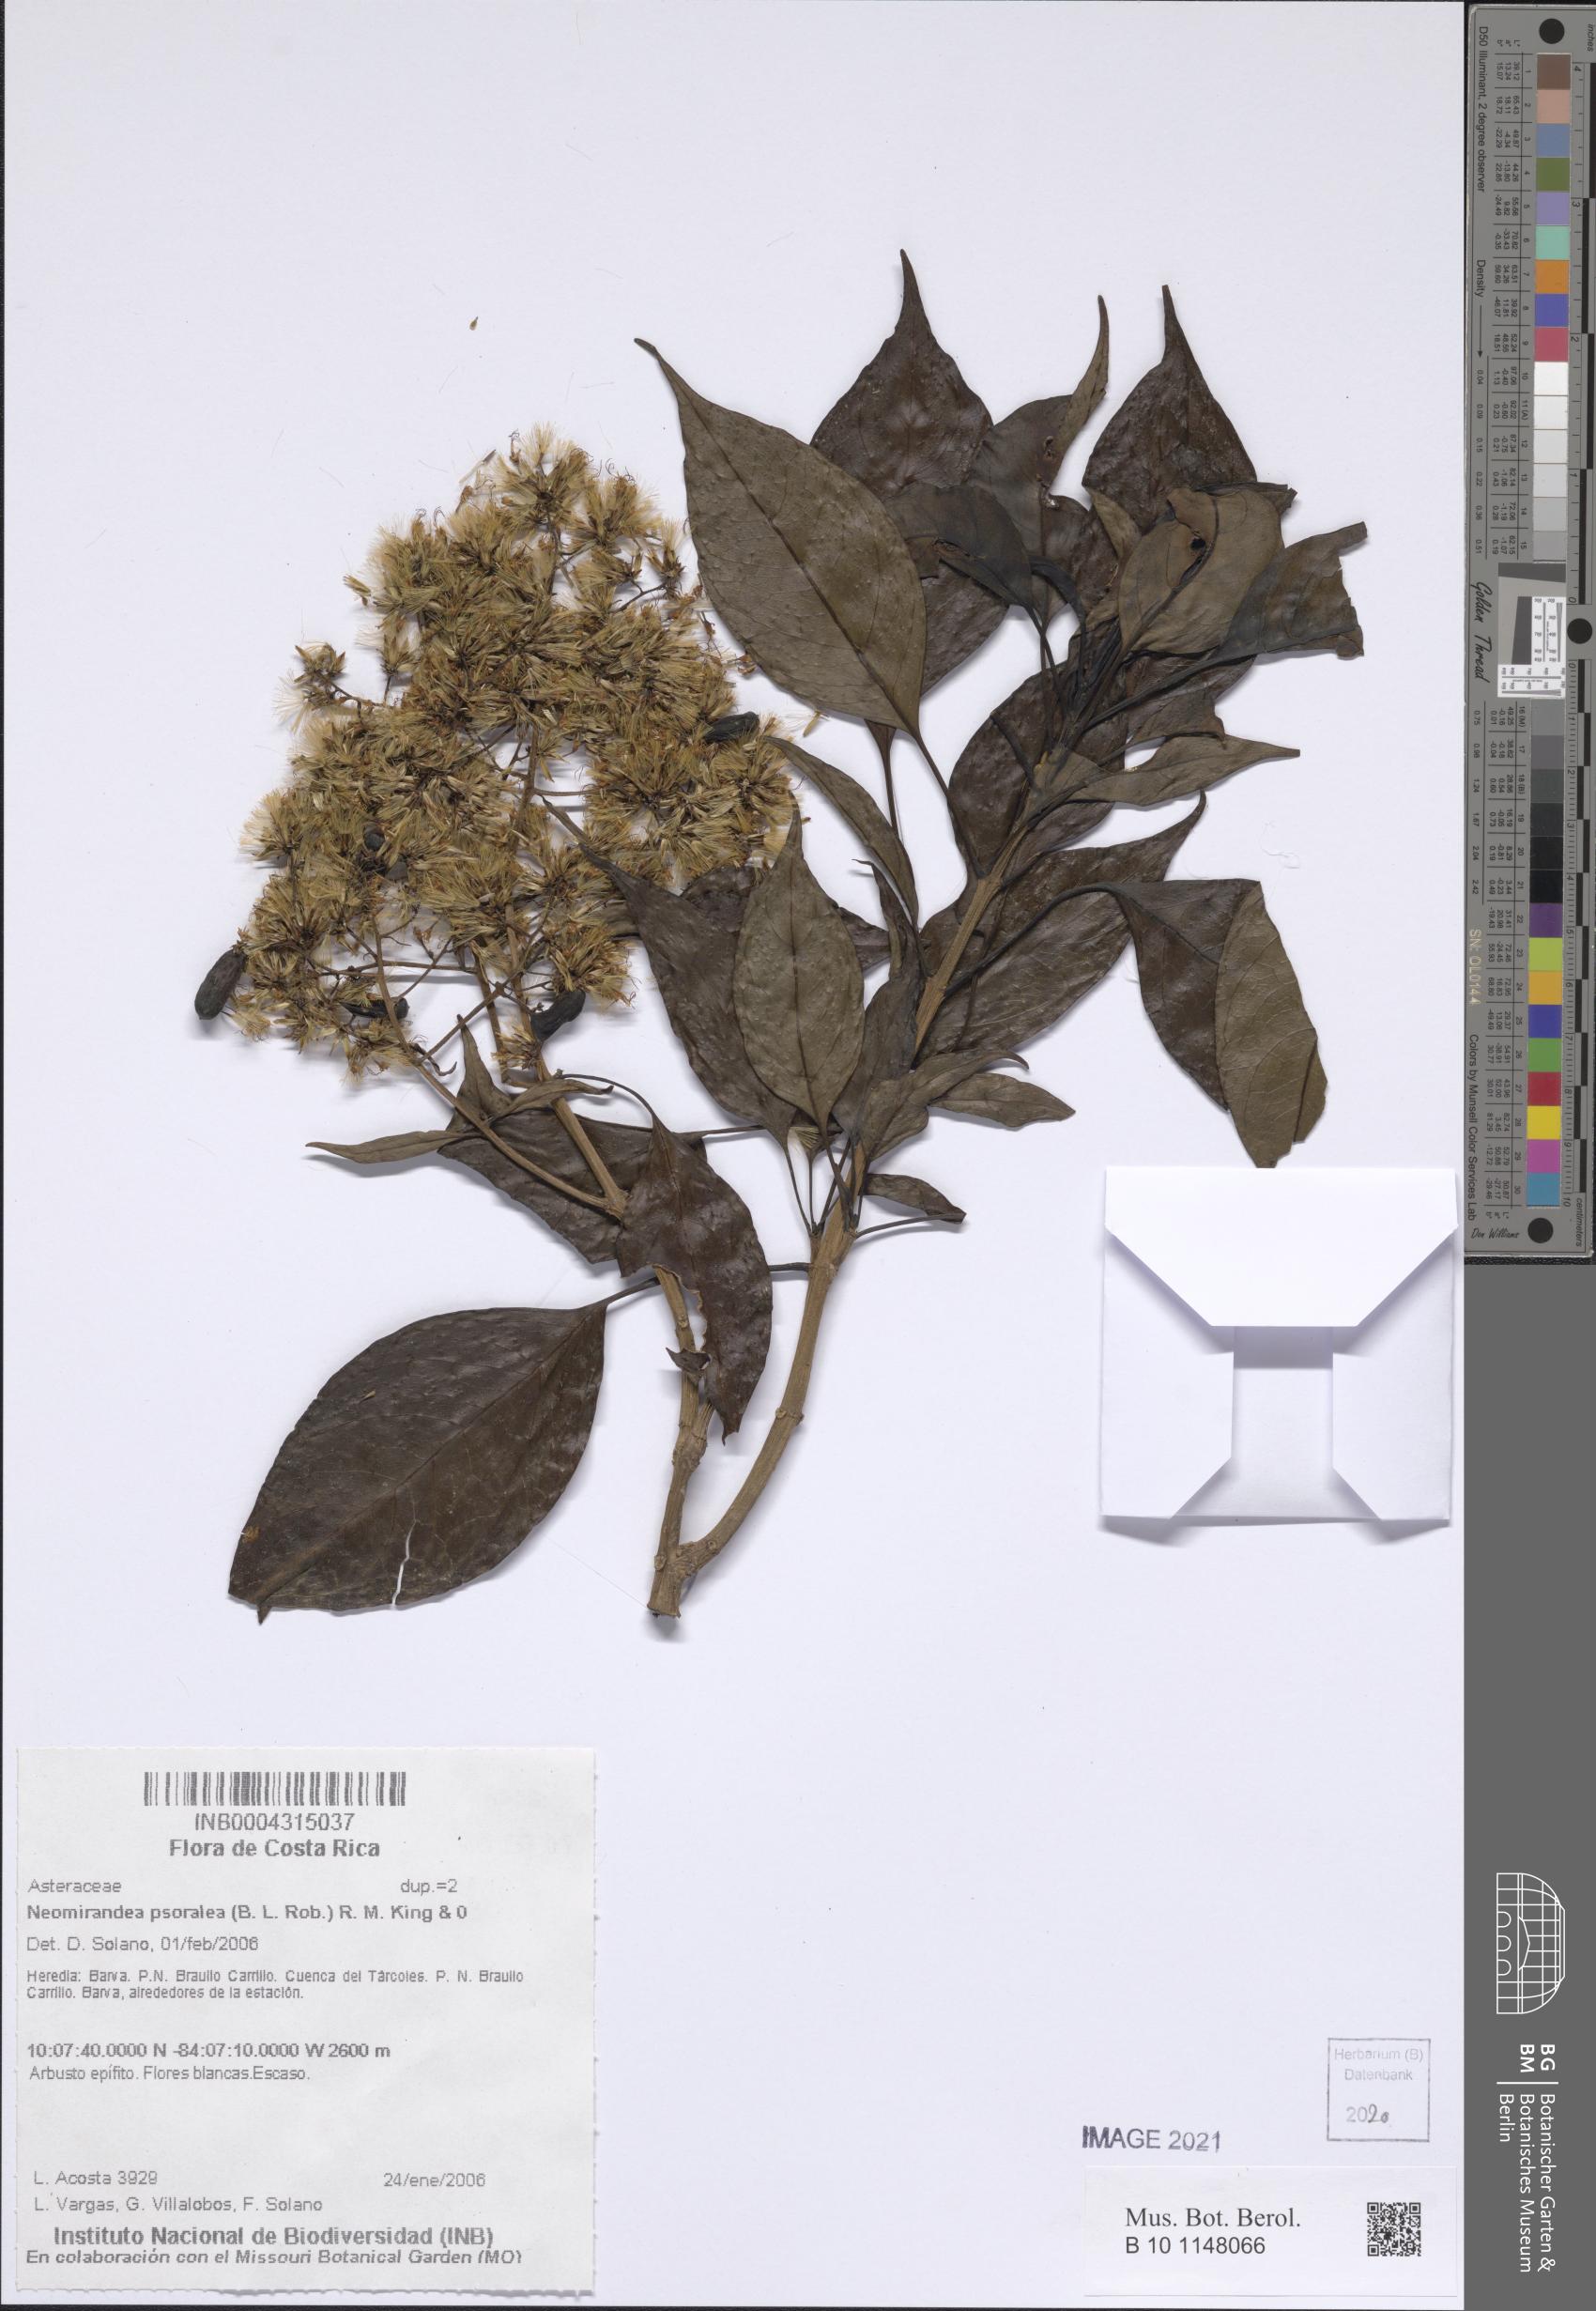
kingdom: Plantae
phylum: Tracheophyta
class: Magnoliopsida
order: Asterales
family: Asteraceae
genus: Neomirandea
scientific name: Neomirandea psoralea
